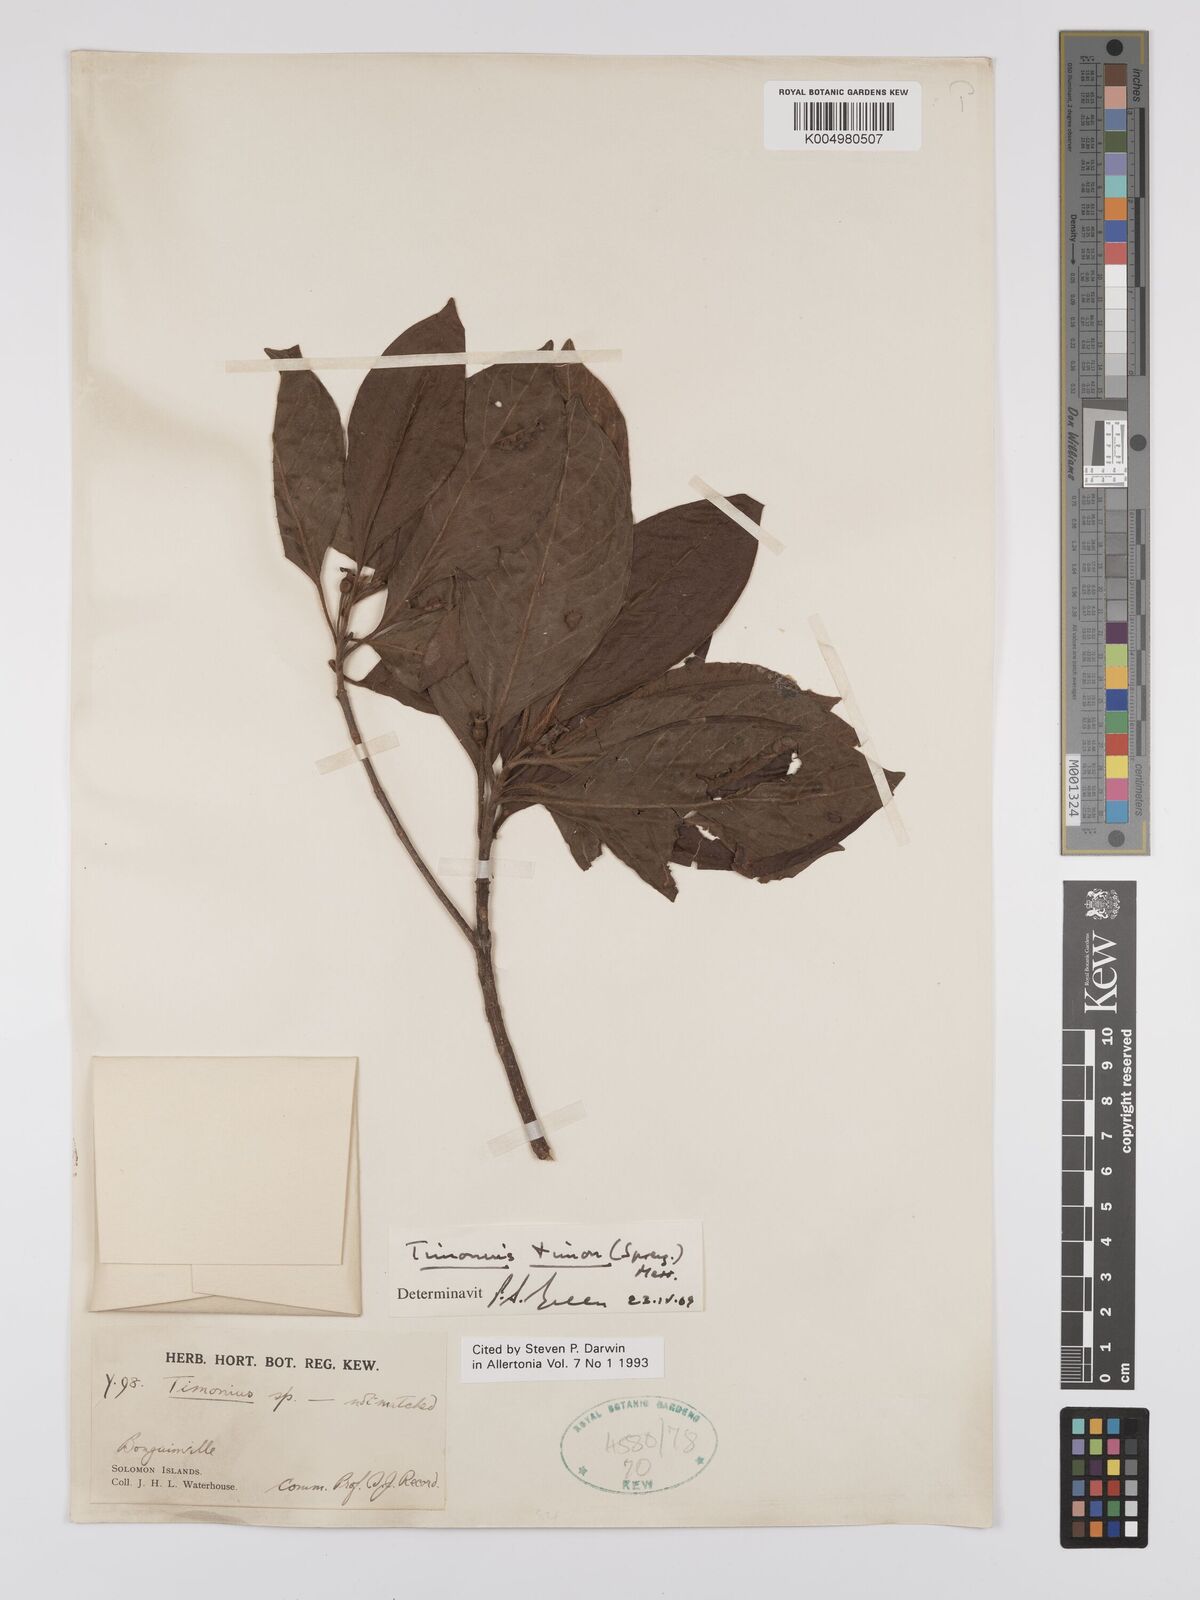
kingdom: Plantae
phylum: Tracheophyta
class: Magnoliopsida
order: Gentianales
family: Rubiaceae
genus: Timonius
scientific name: Timonius timon
